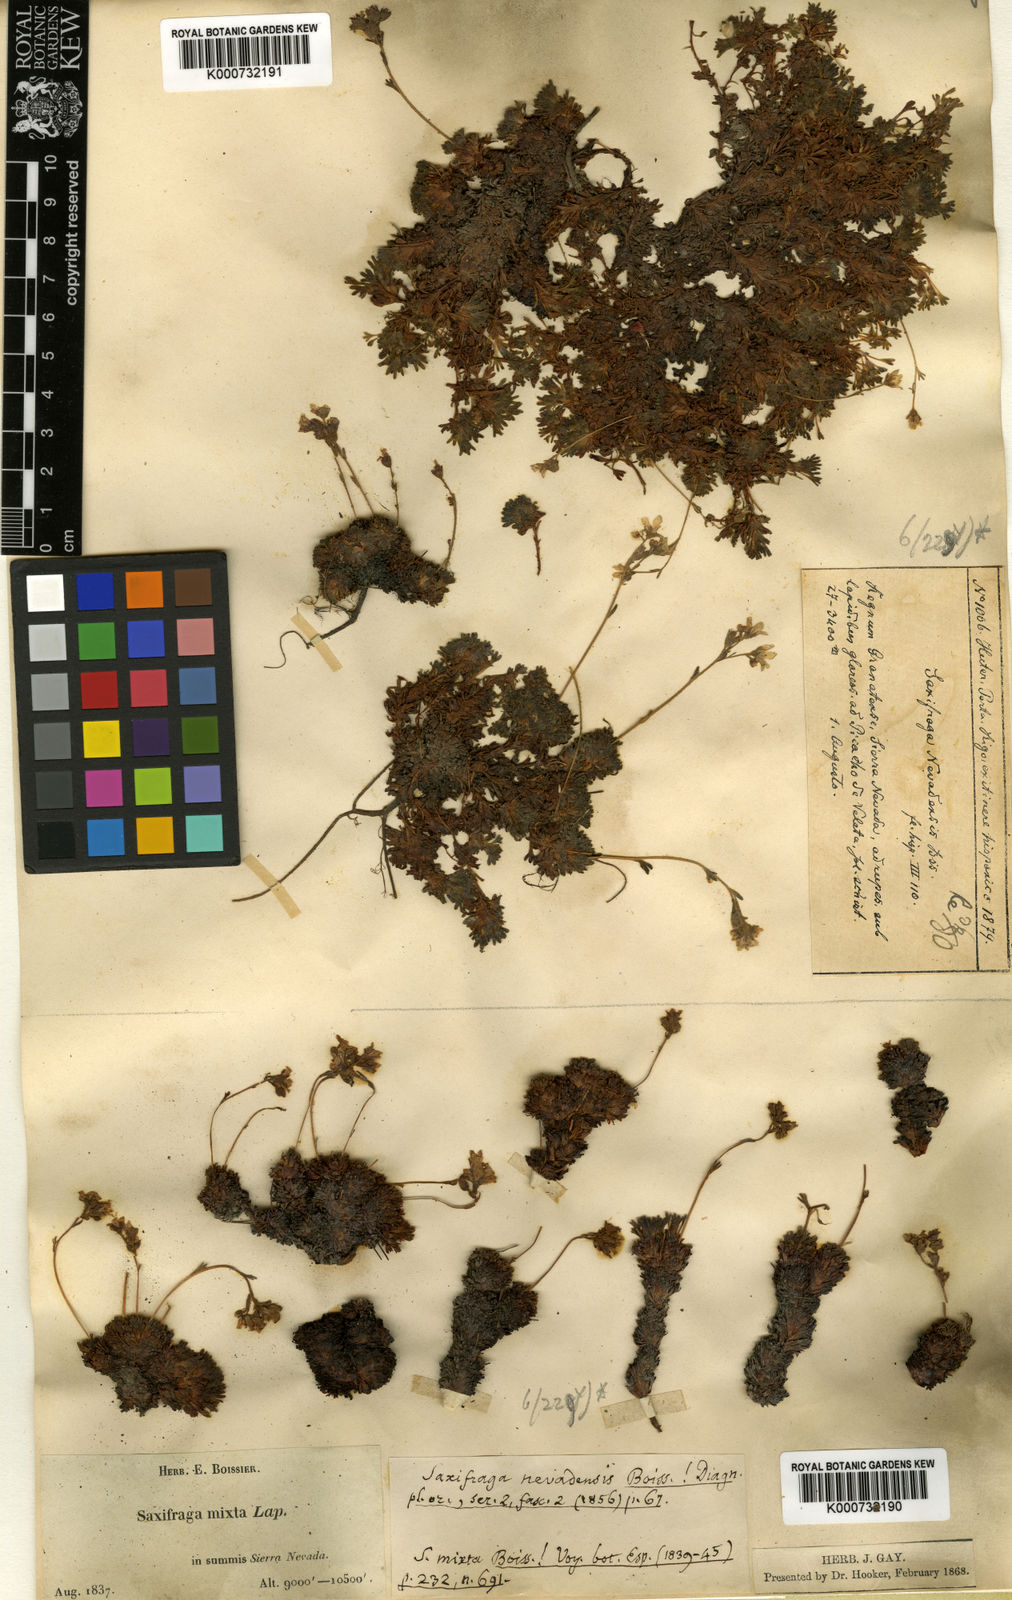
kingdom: Plantae
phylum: Tracheophyta
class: Magnoliopsida
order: Saxifragales
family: Saxifragaceae
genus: Saxifraga
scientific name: Saxifraga nevadensis
